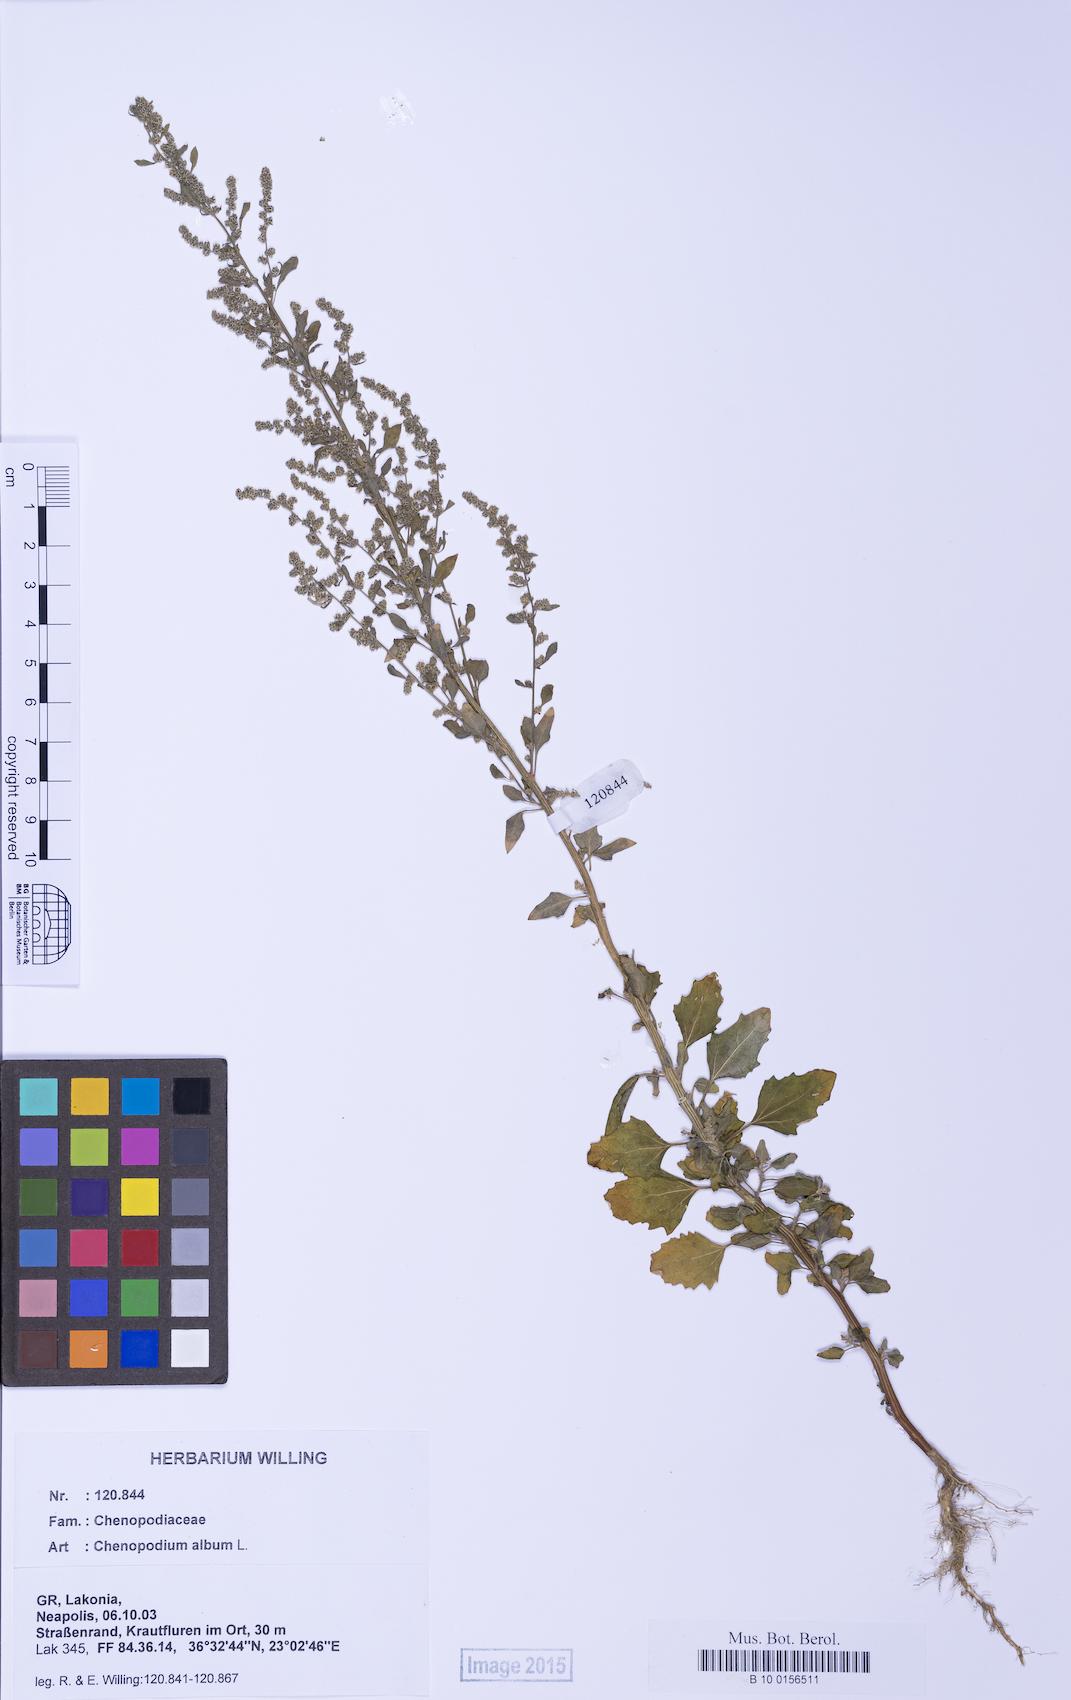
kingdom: Plantae
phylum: Tracheophyta
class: Magnoliopsida
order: Caryophyllales
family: Amaranthaceae
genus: Chenopodium
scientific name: Chenopodium album
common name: Fat-hen
